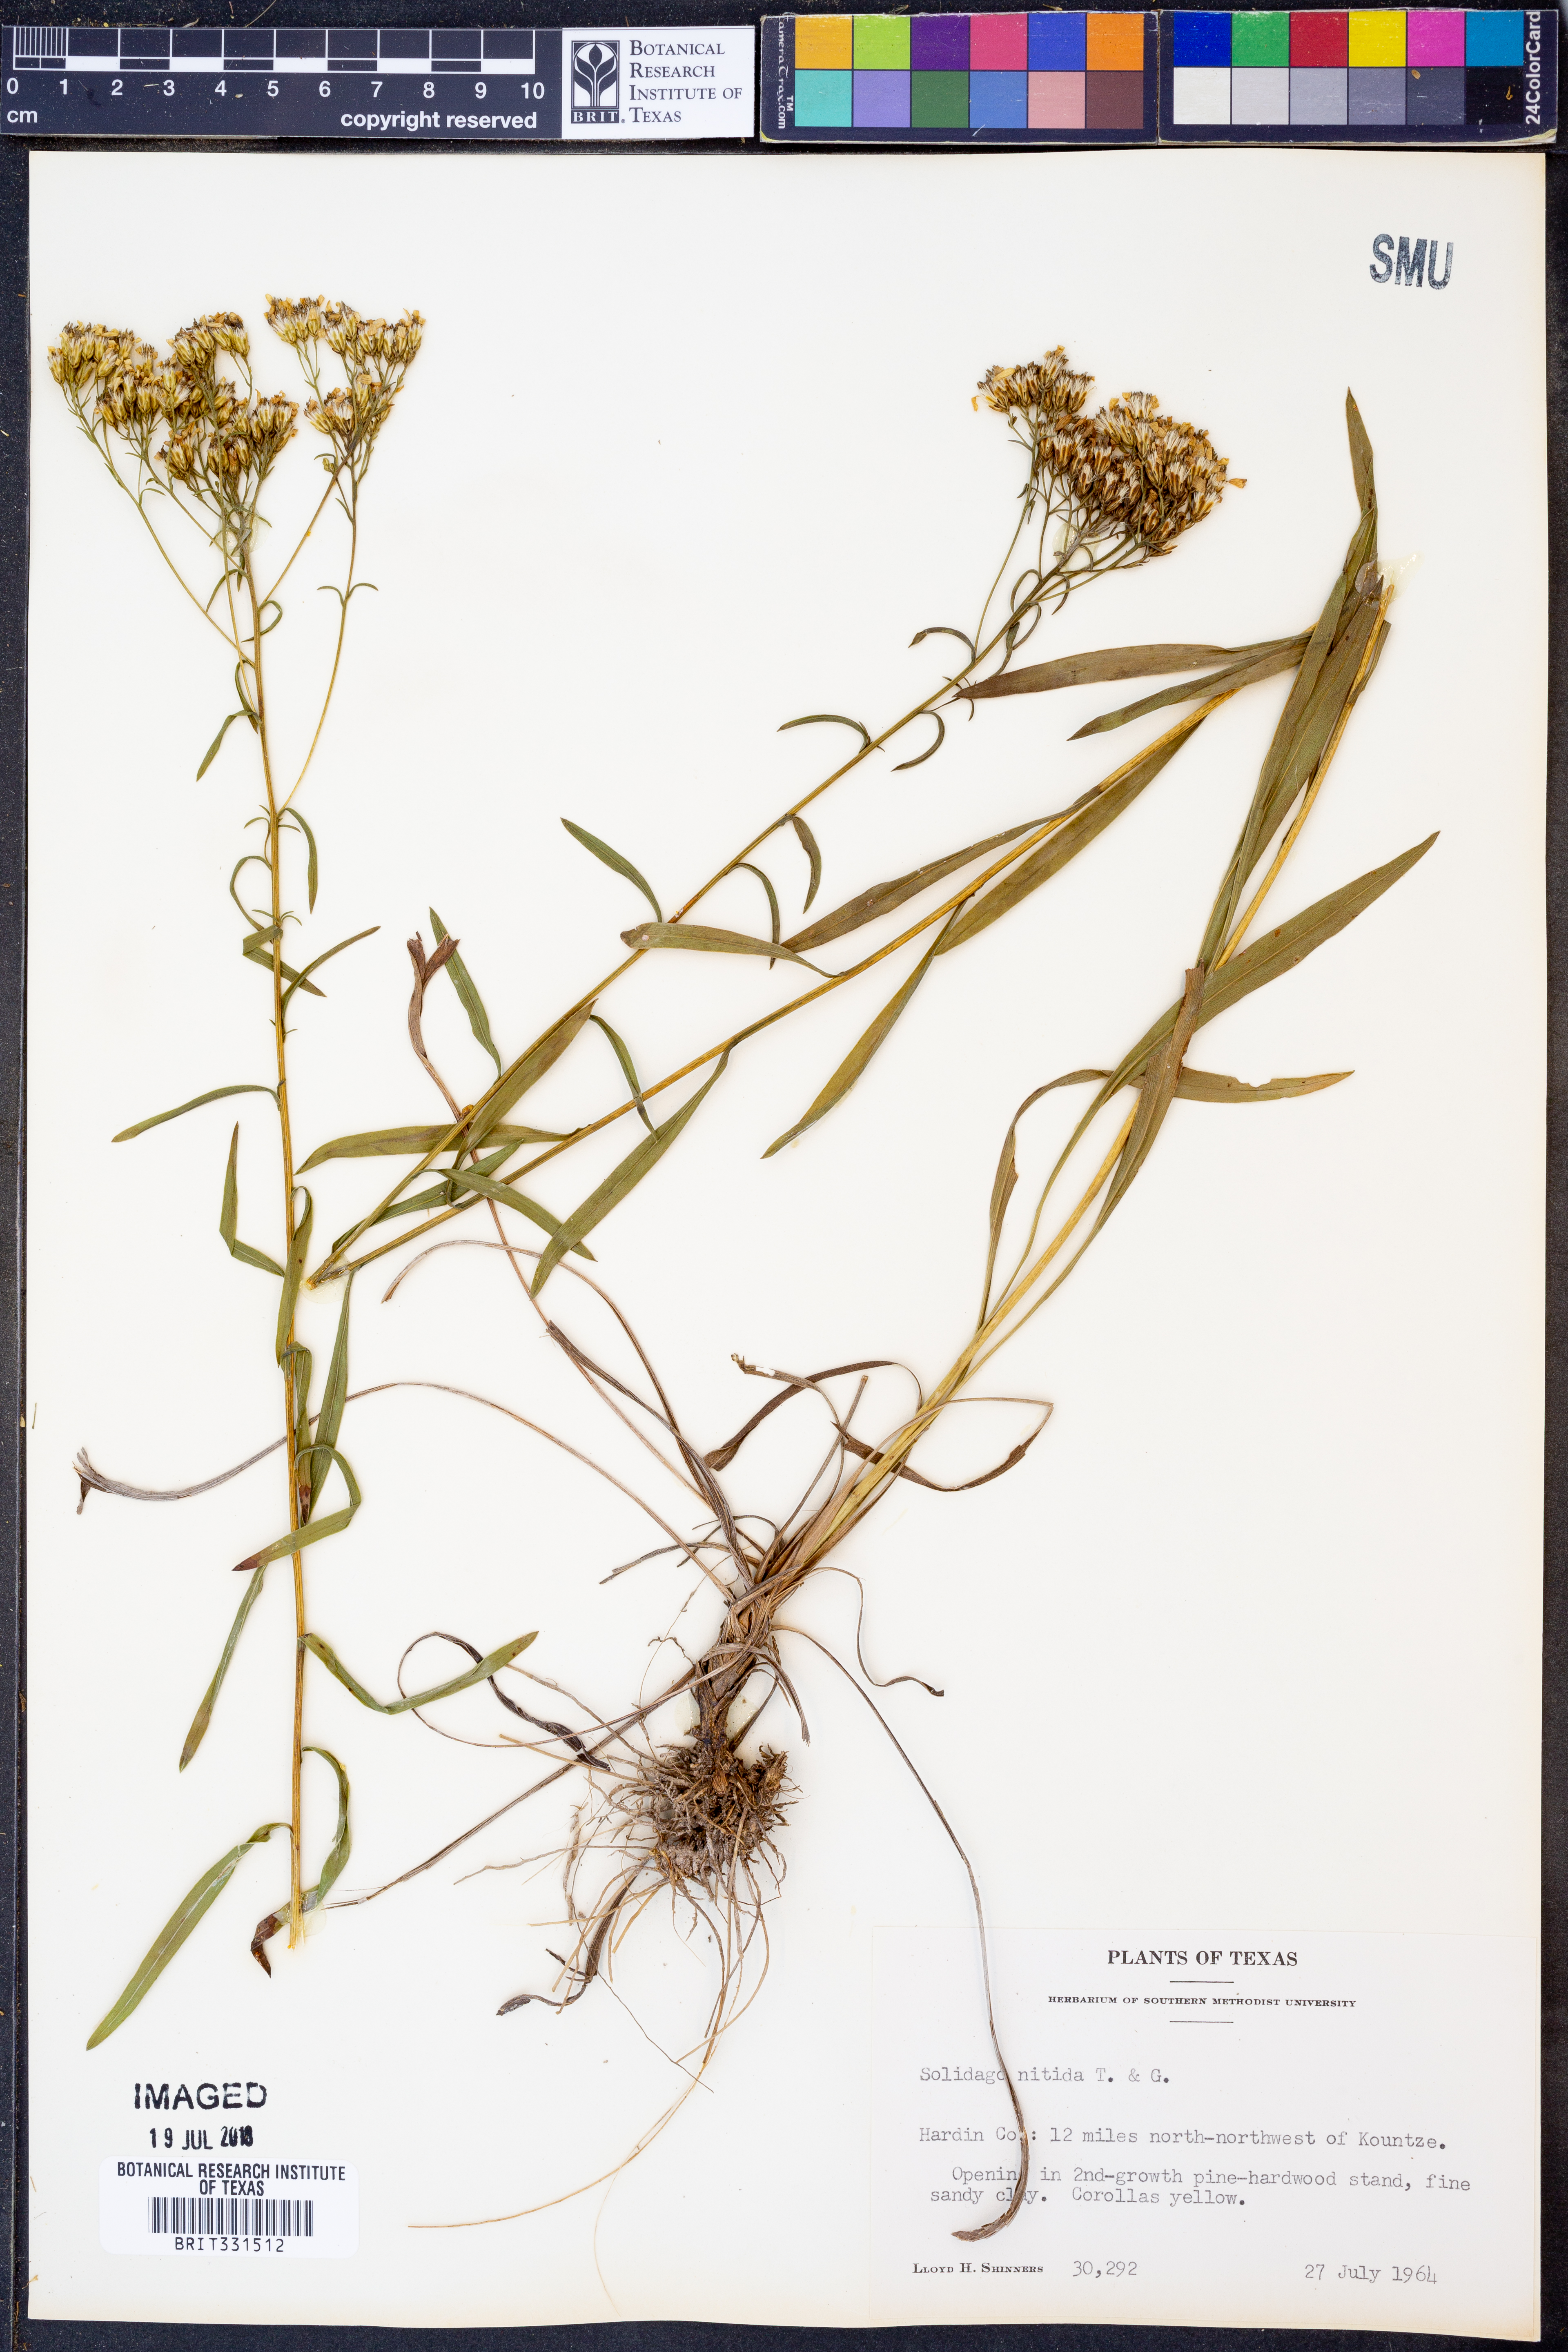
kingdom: Plantae
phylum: Tracheophyta
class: Magnoliopsida
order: Asterales
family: Asteraceae
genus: Solidago
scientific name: Solidago nitida
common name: Shiny goldenrod
